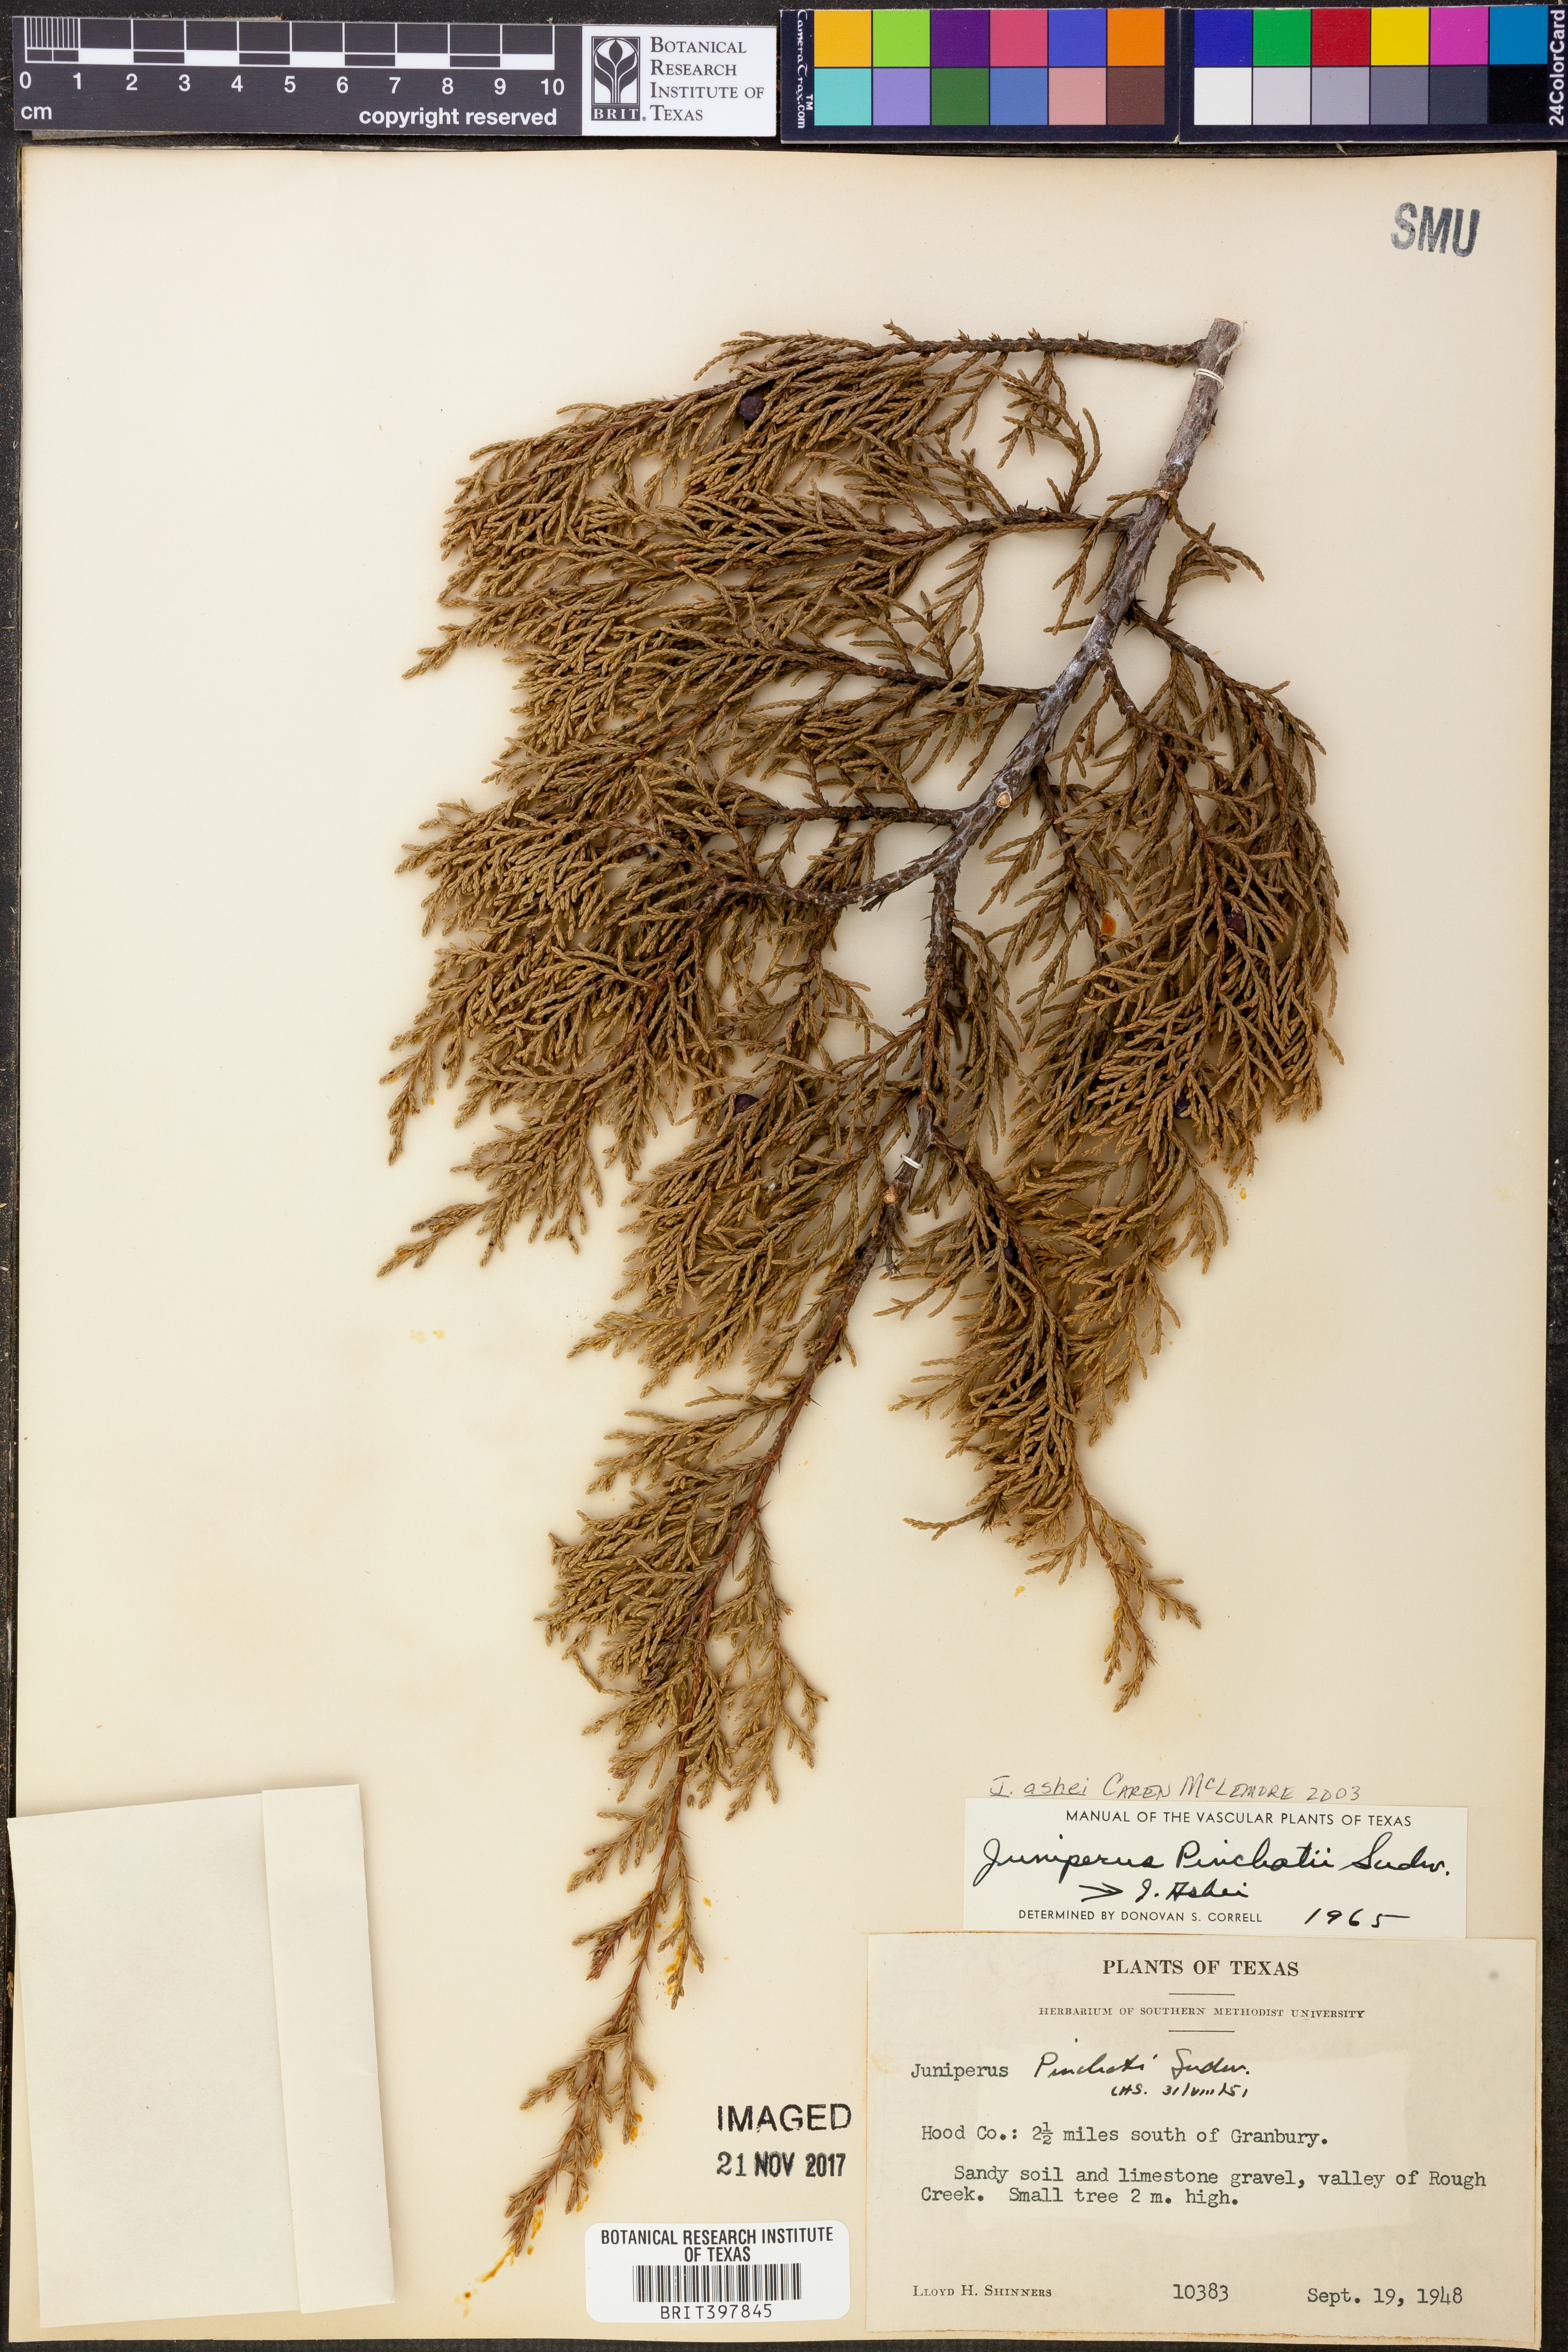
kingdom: Plantae
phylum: Tracheophyta
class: Pinopsida
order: Pinales
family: Cupressaceae
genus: Juniperus
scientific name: Juniperus ashei
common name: Mexican juniper
